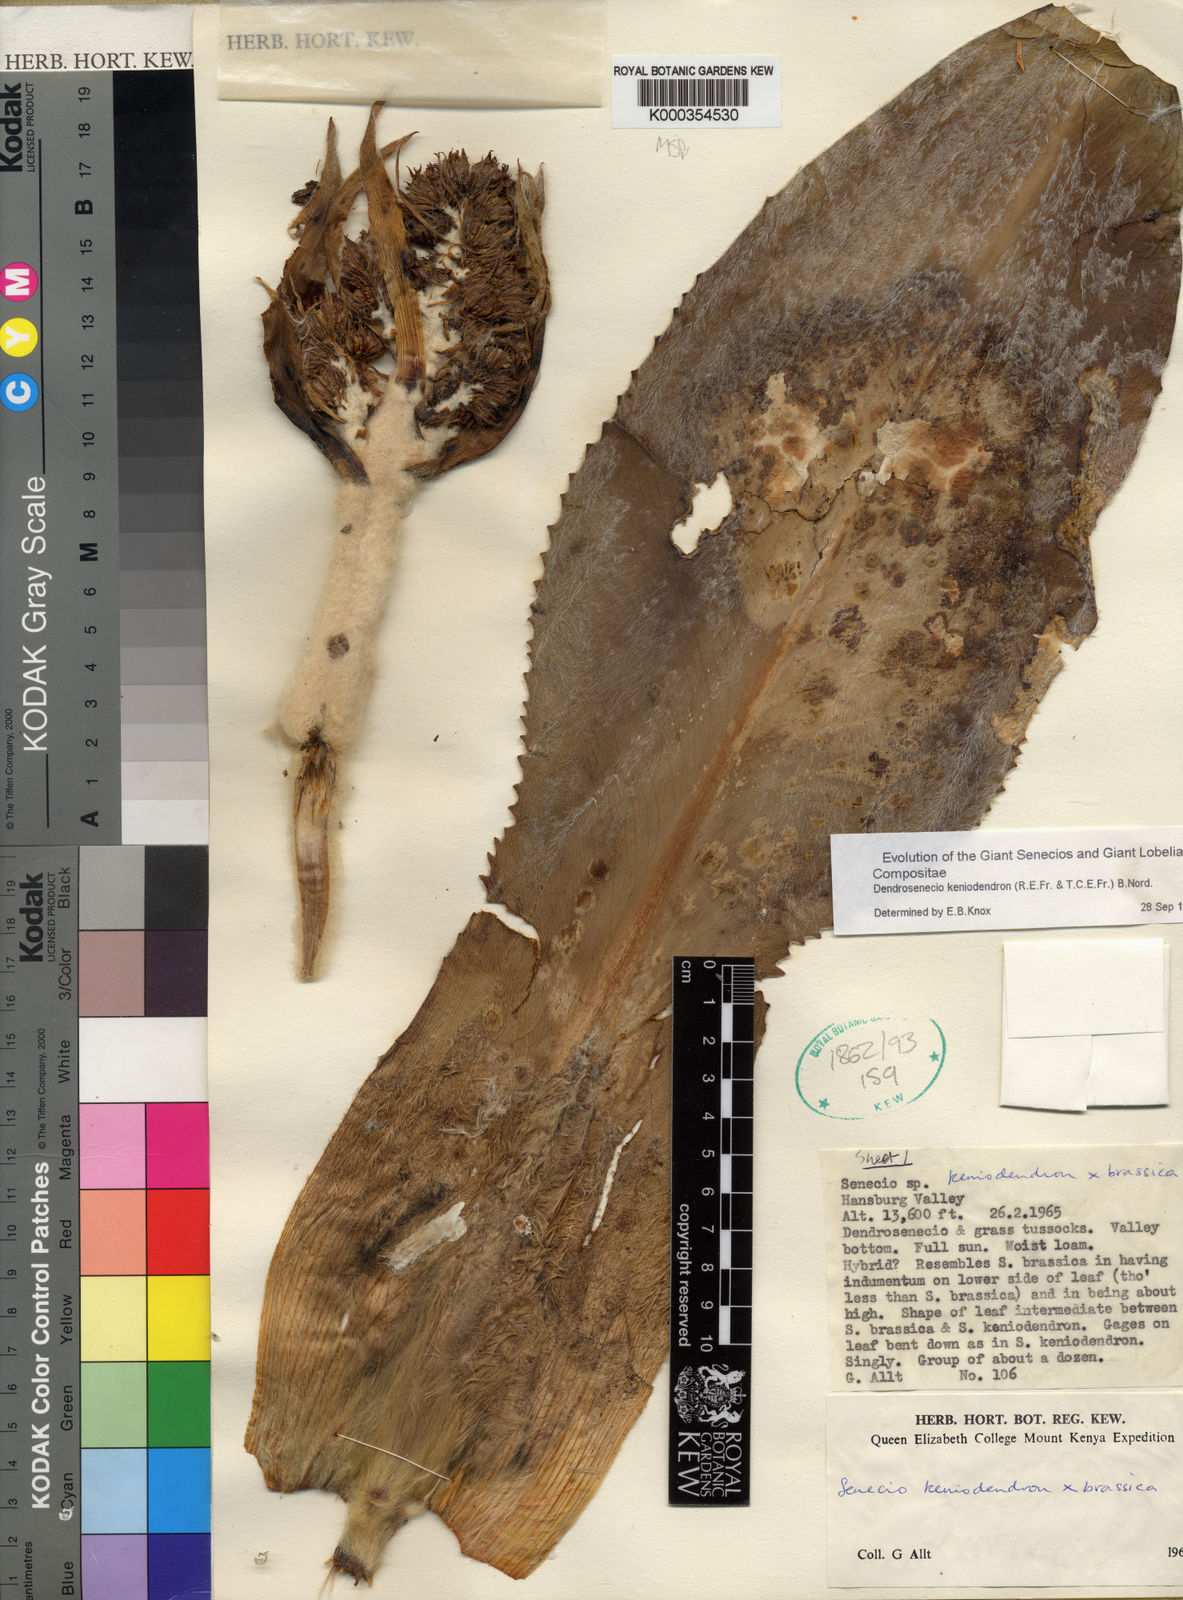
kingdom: Plantae
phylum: Tracheophyta
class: Magnoliopsida
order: Asterales
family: Asteraceae
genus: Dendrosenecio
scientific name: Dendrosenecio keniodendron
